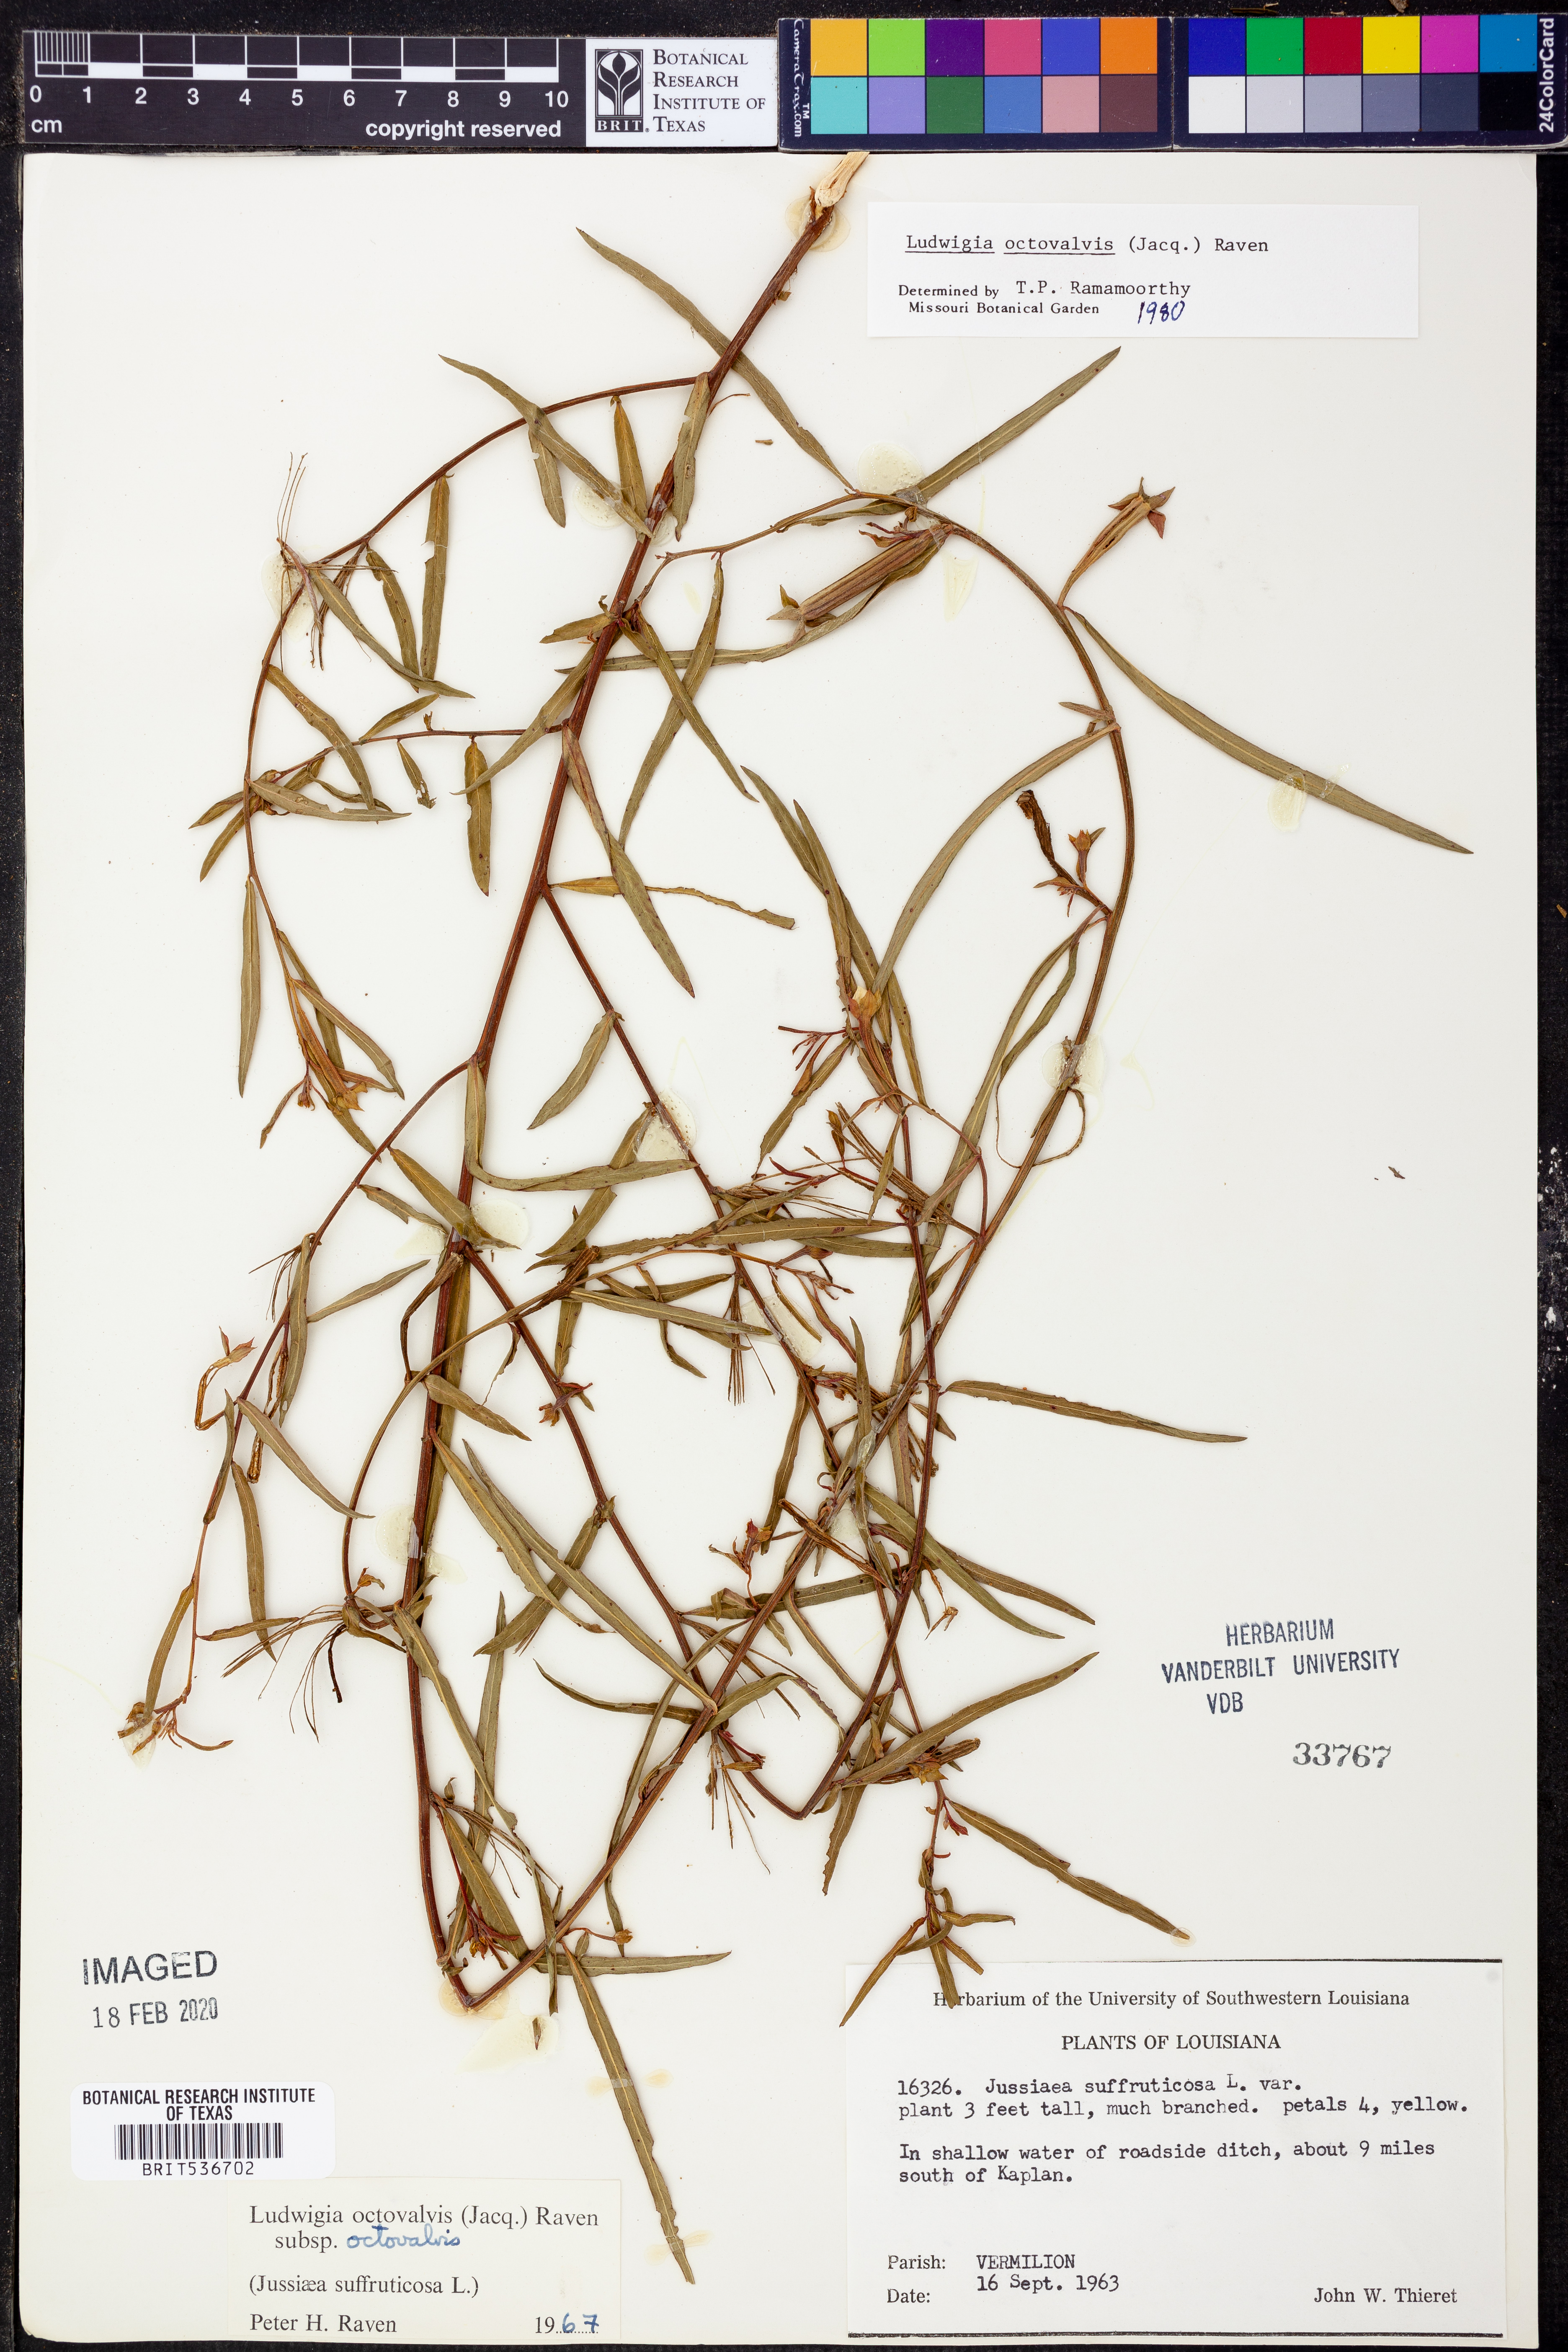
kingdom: Plantae
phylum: Tracheophyta
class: Magnoliopsida
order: Myrtales
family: Onagraceae
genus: Ludwigia
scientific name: Ludwigia octovalvis
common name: Water-primrose
